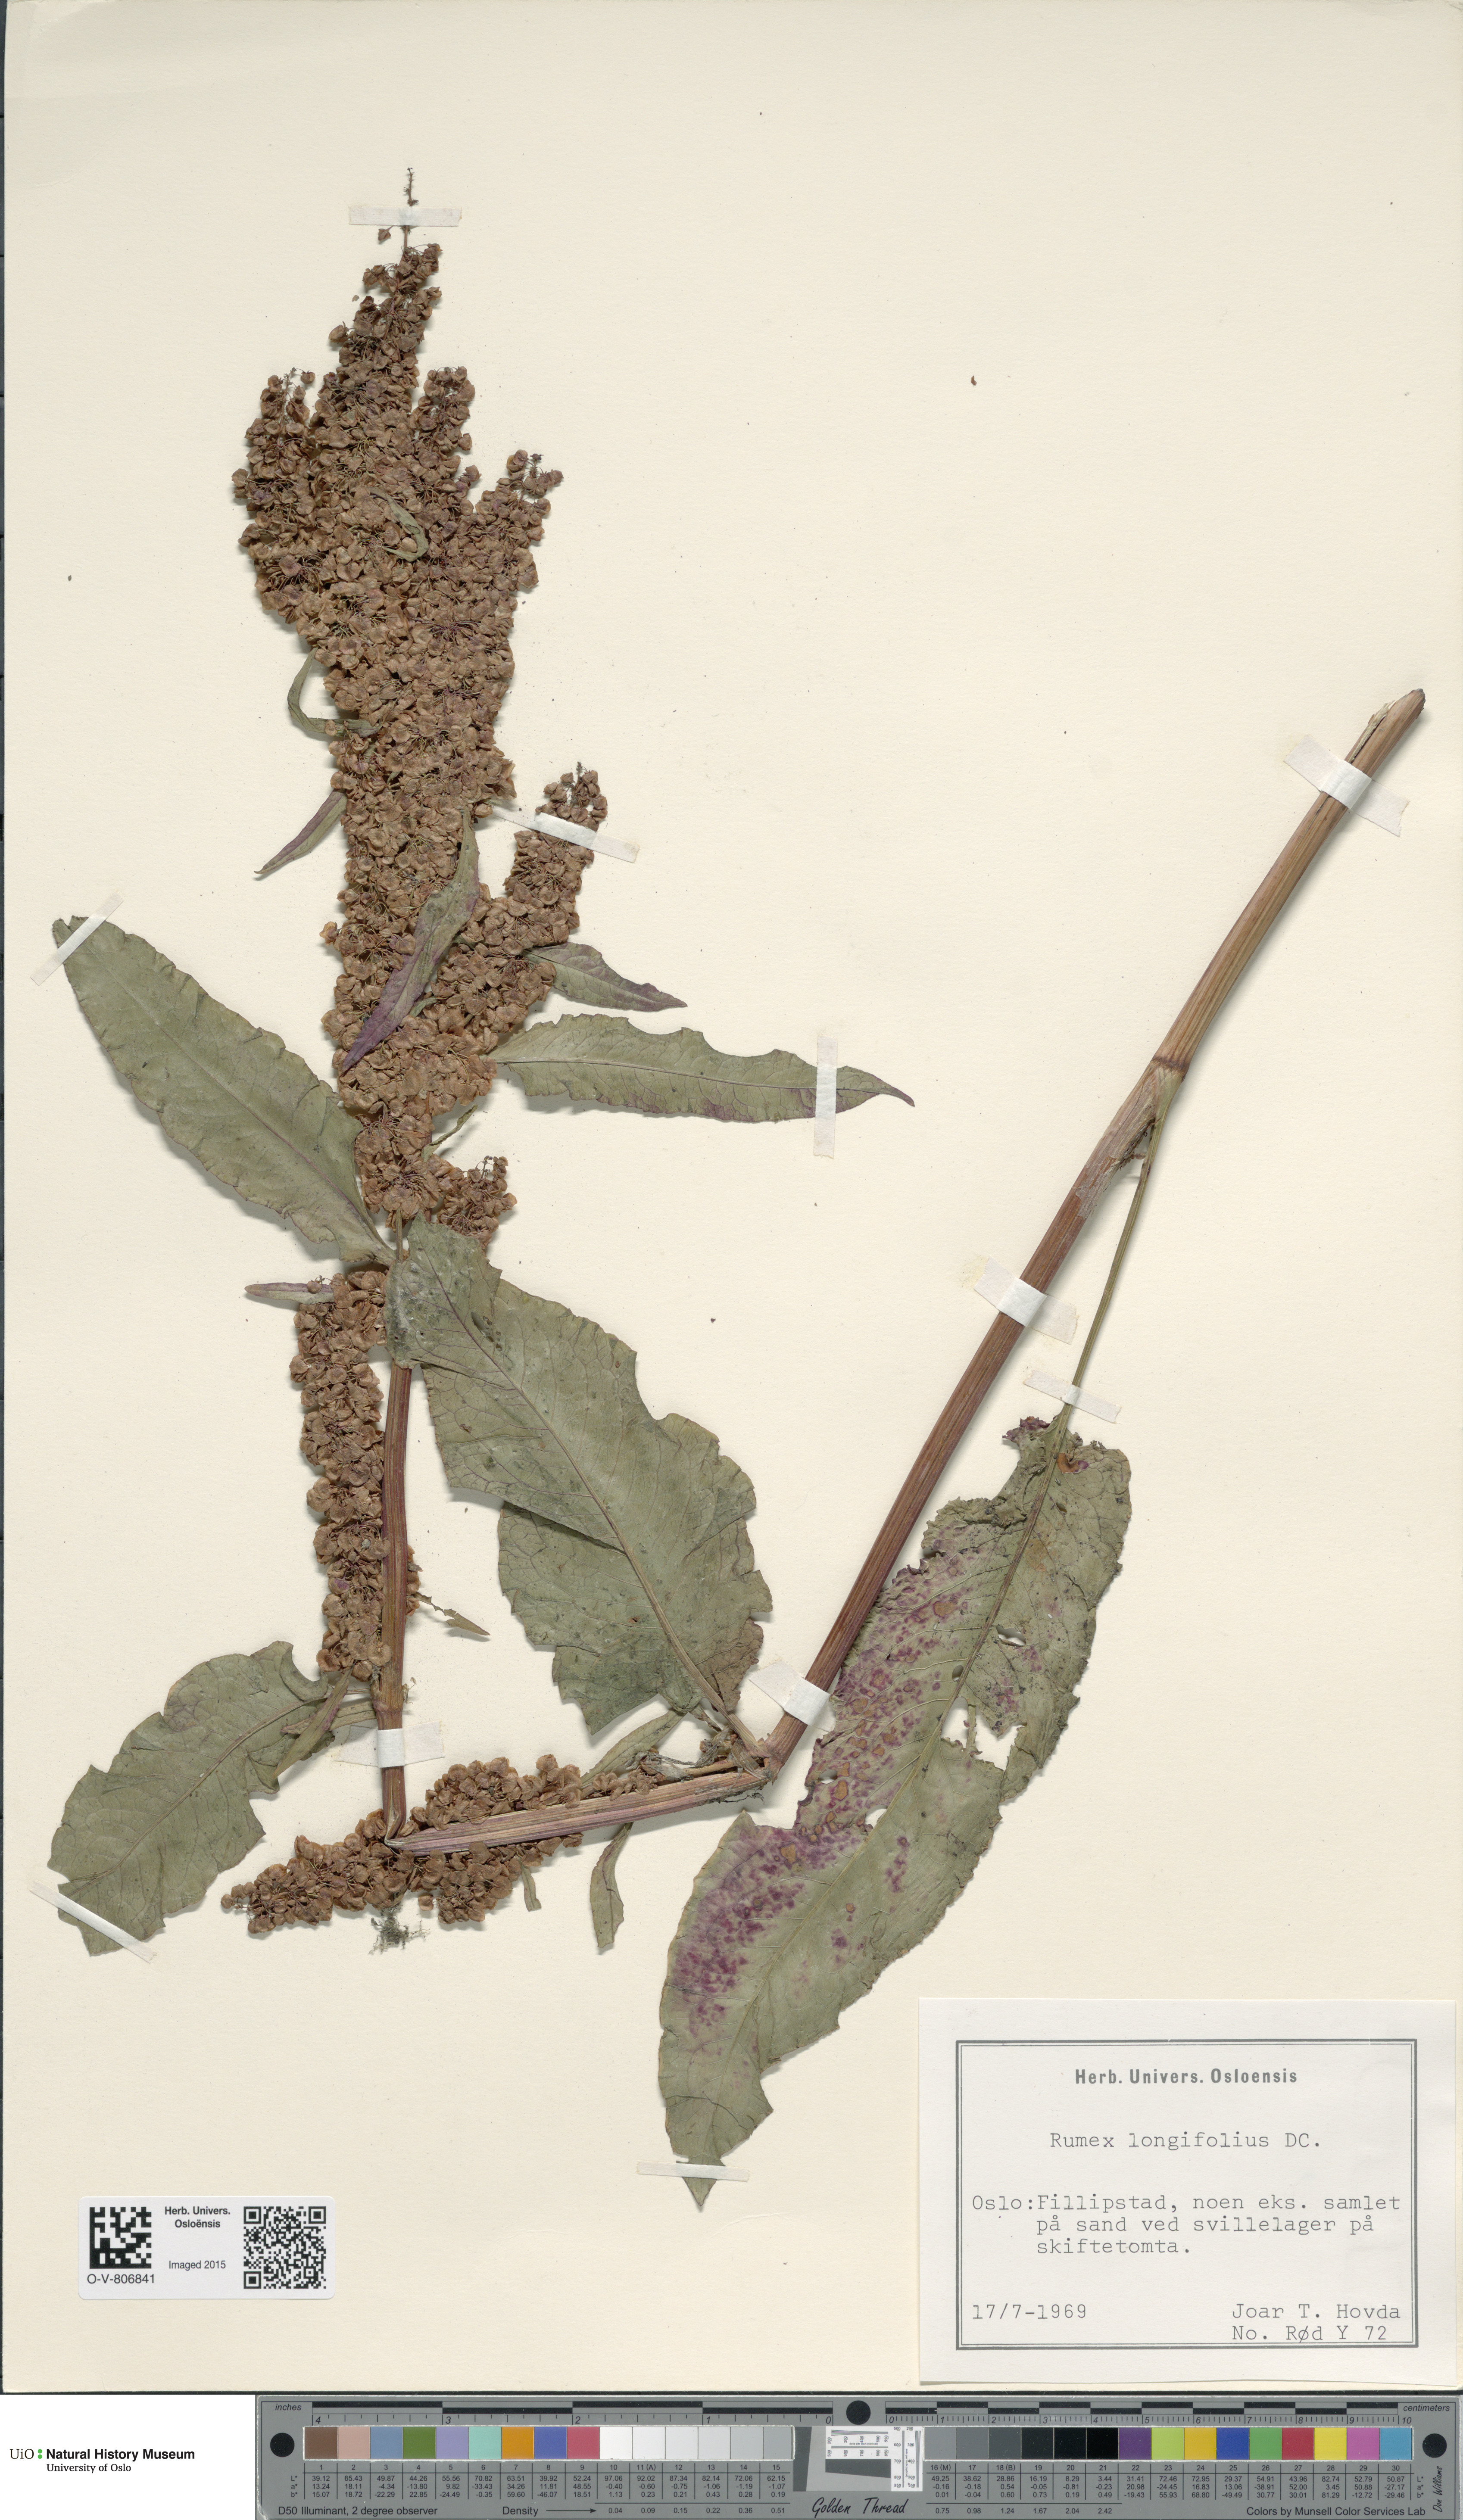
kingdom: Plantae
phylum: Tracheophyta
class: Magnoliopsida
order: Caryophyllales
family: Polygonaceae
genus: Rumex
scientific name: Rumex longifolius
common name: Dooryard dock
